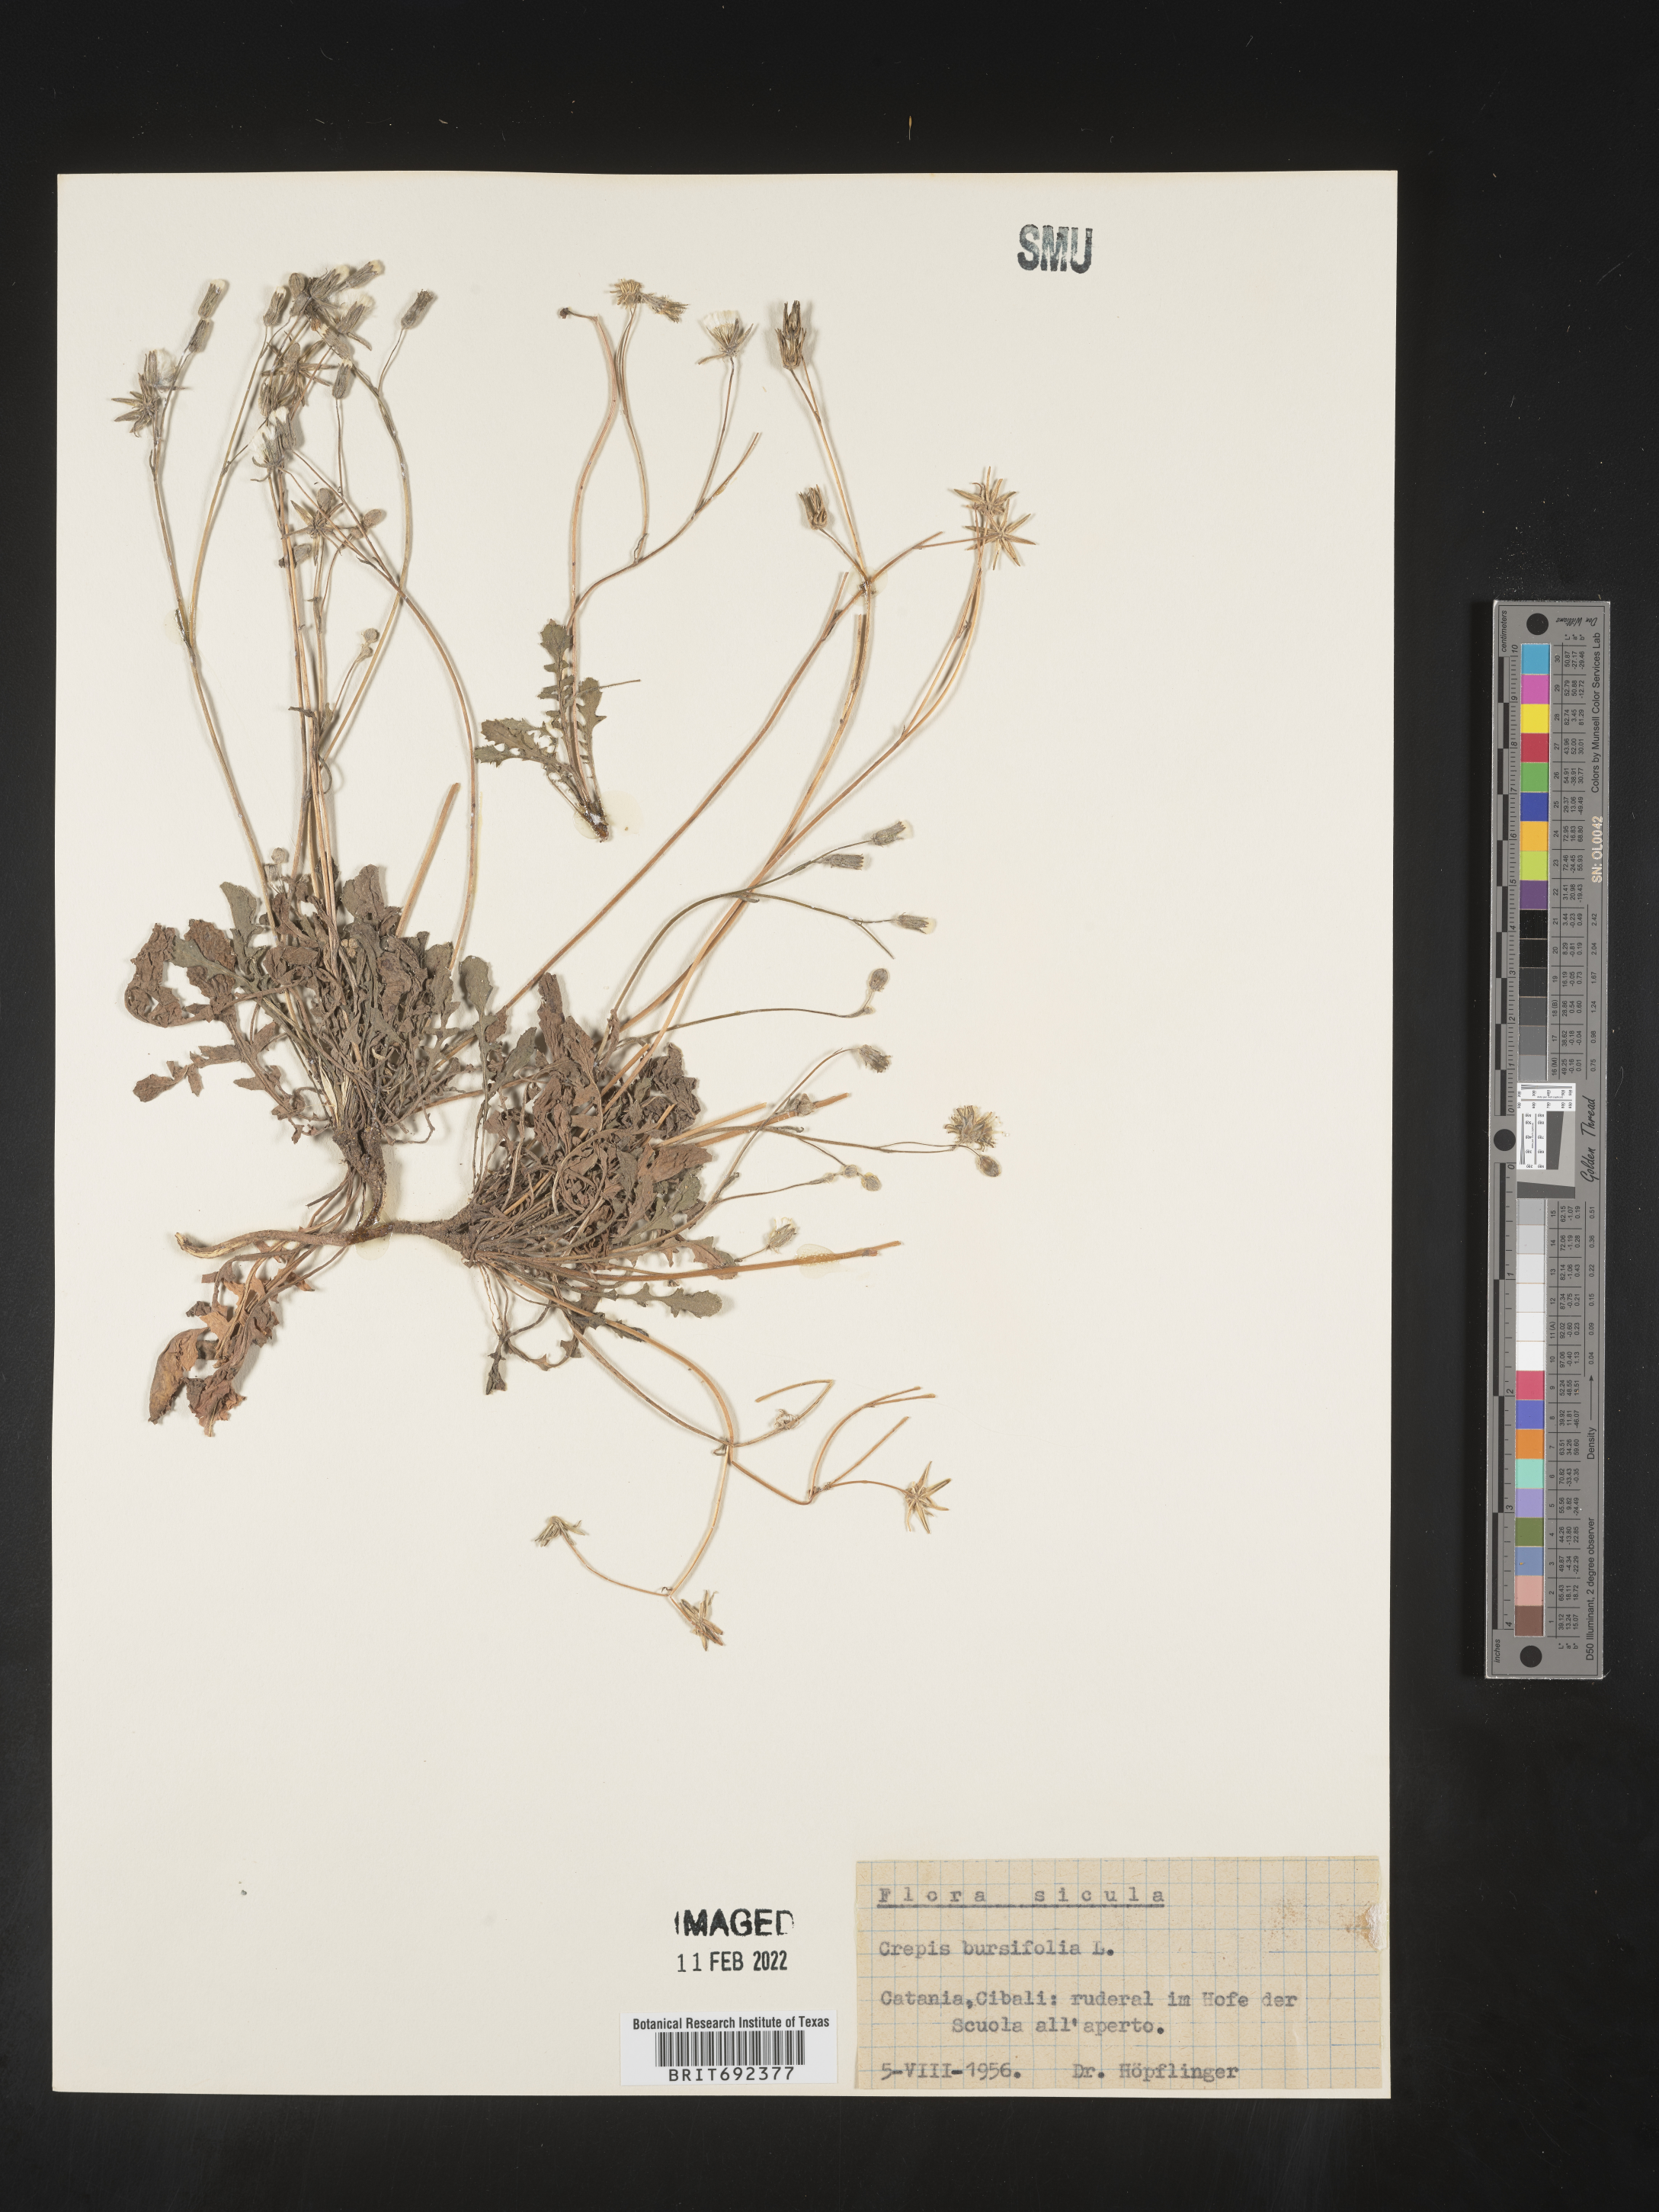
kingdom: Plantae
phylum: Tracheophyta
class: Magnoliopsida
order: Asterales
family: Asteraceae
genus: Crepis
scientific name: Crepis
